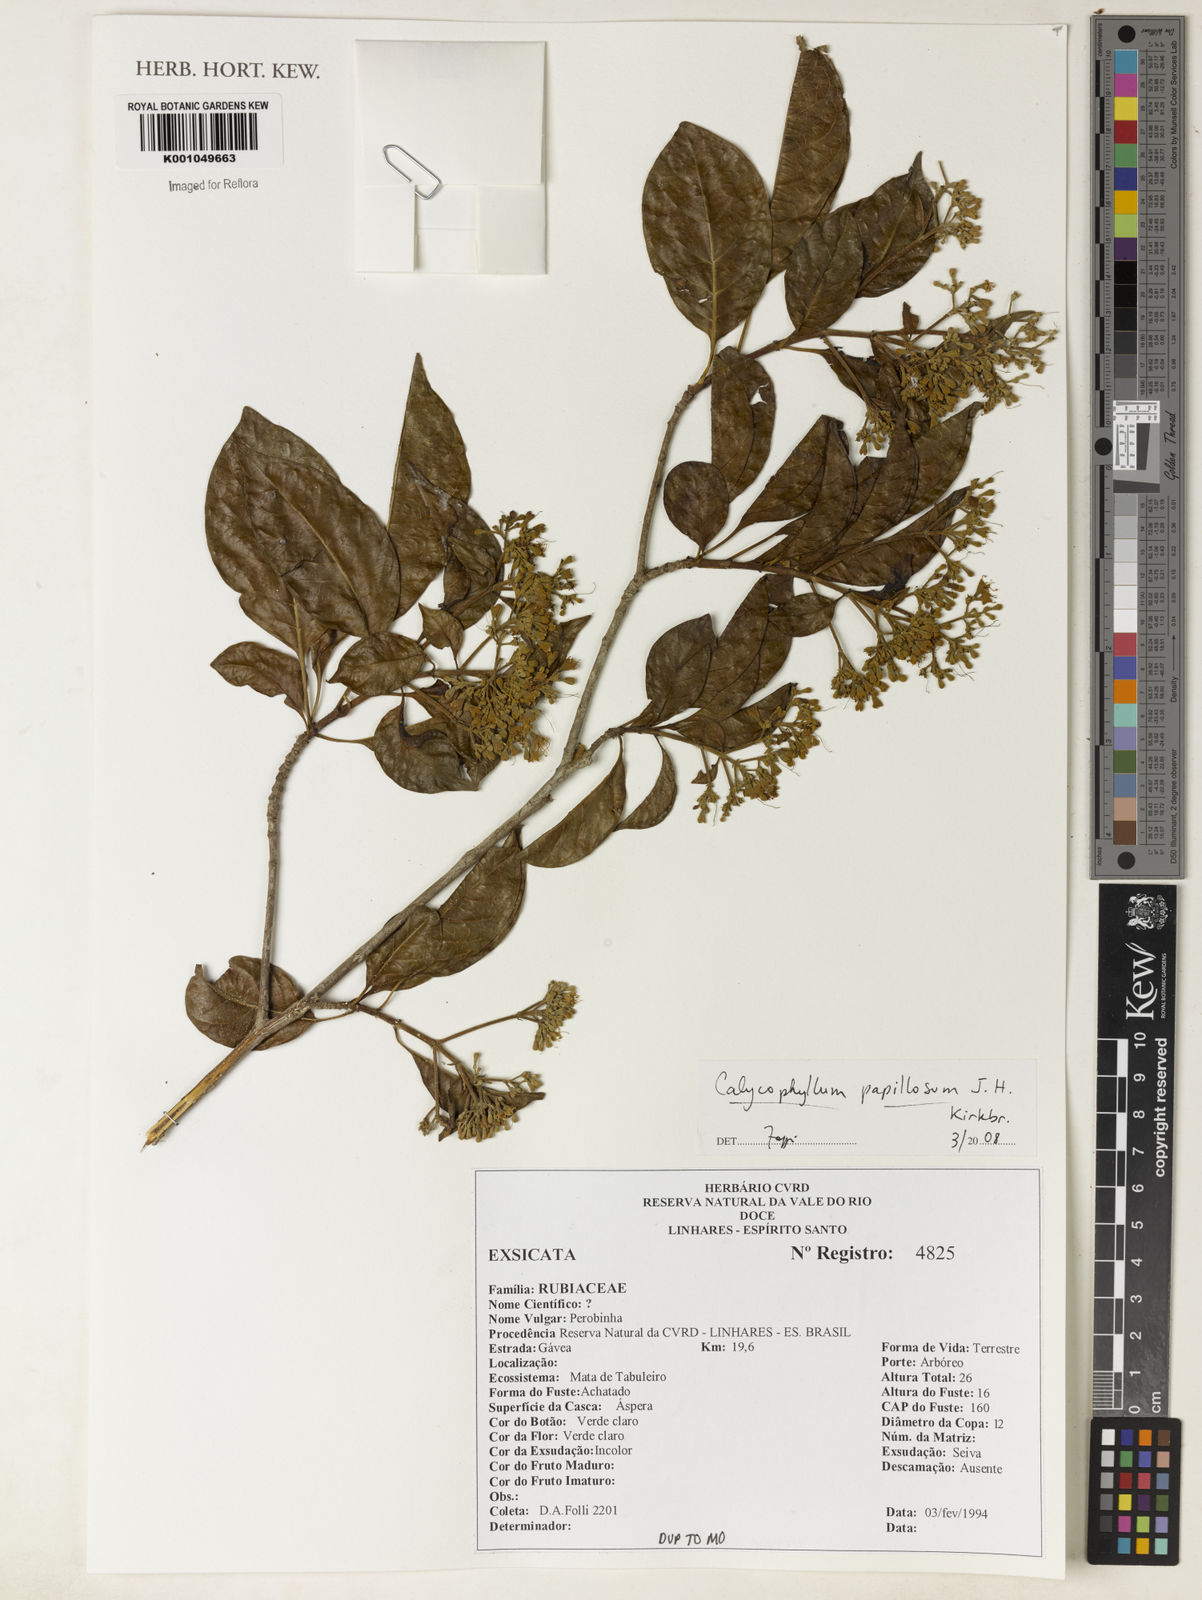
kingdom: Plantae
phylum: Tracheophyta
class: Magnoliopsida
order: Gentianales
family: Rubiaceae
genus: Calycophyllum
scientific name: Calycophyllum papillosum
